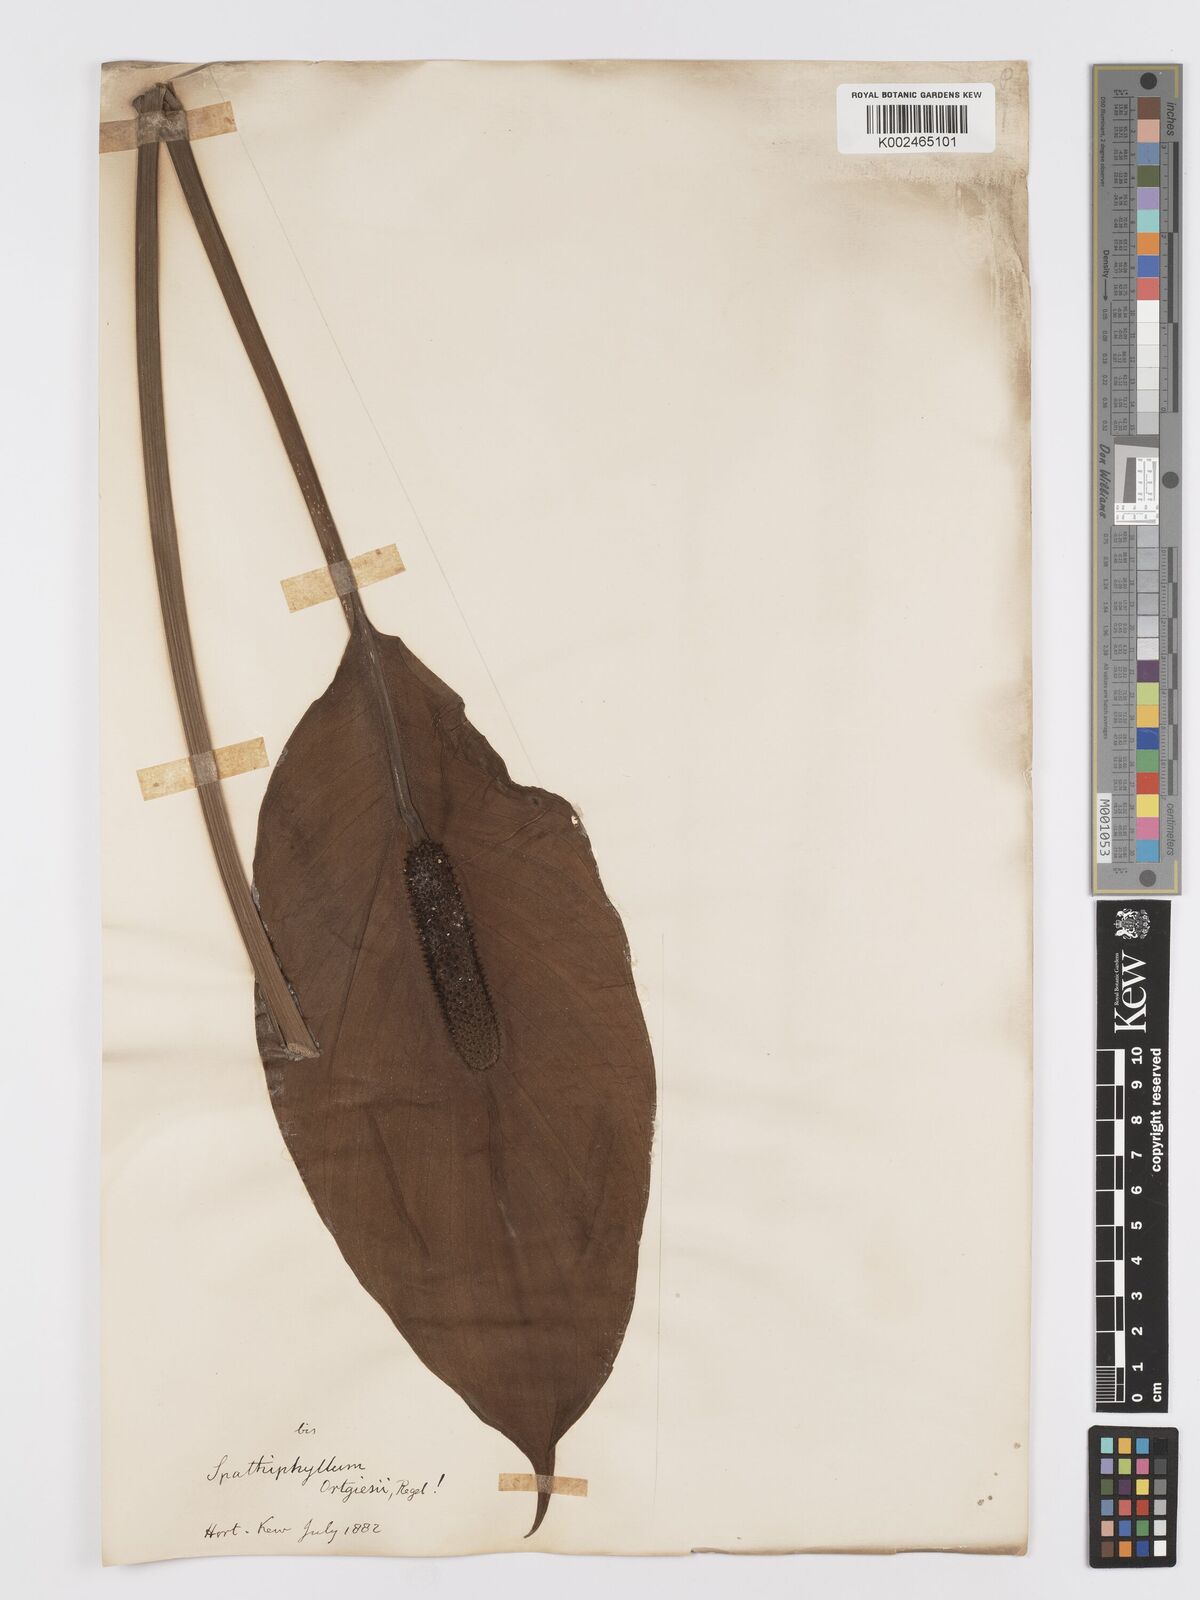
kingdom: Plantae
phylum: Tracheophyta
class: Liliopsida
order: Alismatales
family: Araceae
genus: Spathiphyllum
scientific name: Spathiphyllum ortgiesii
